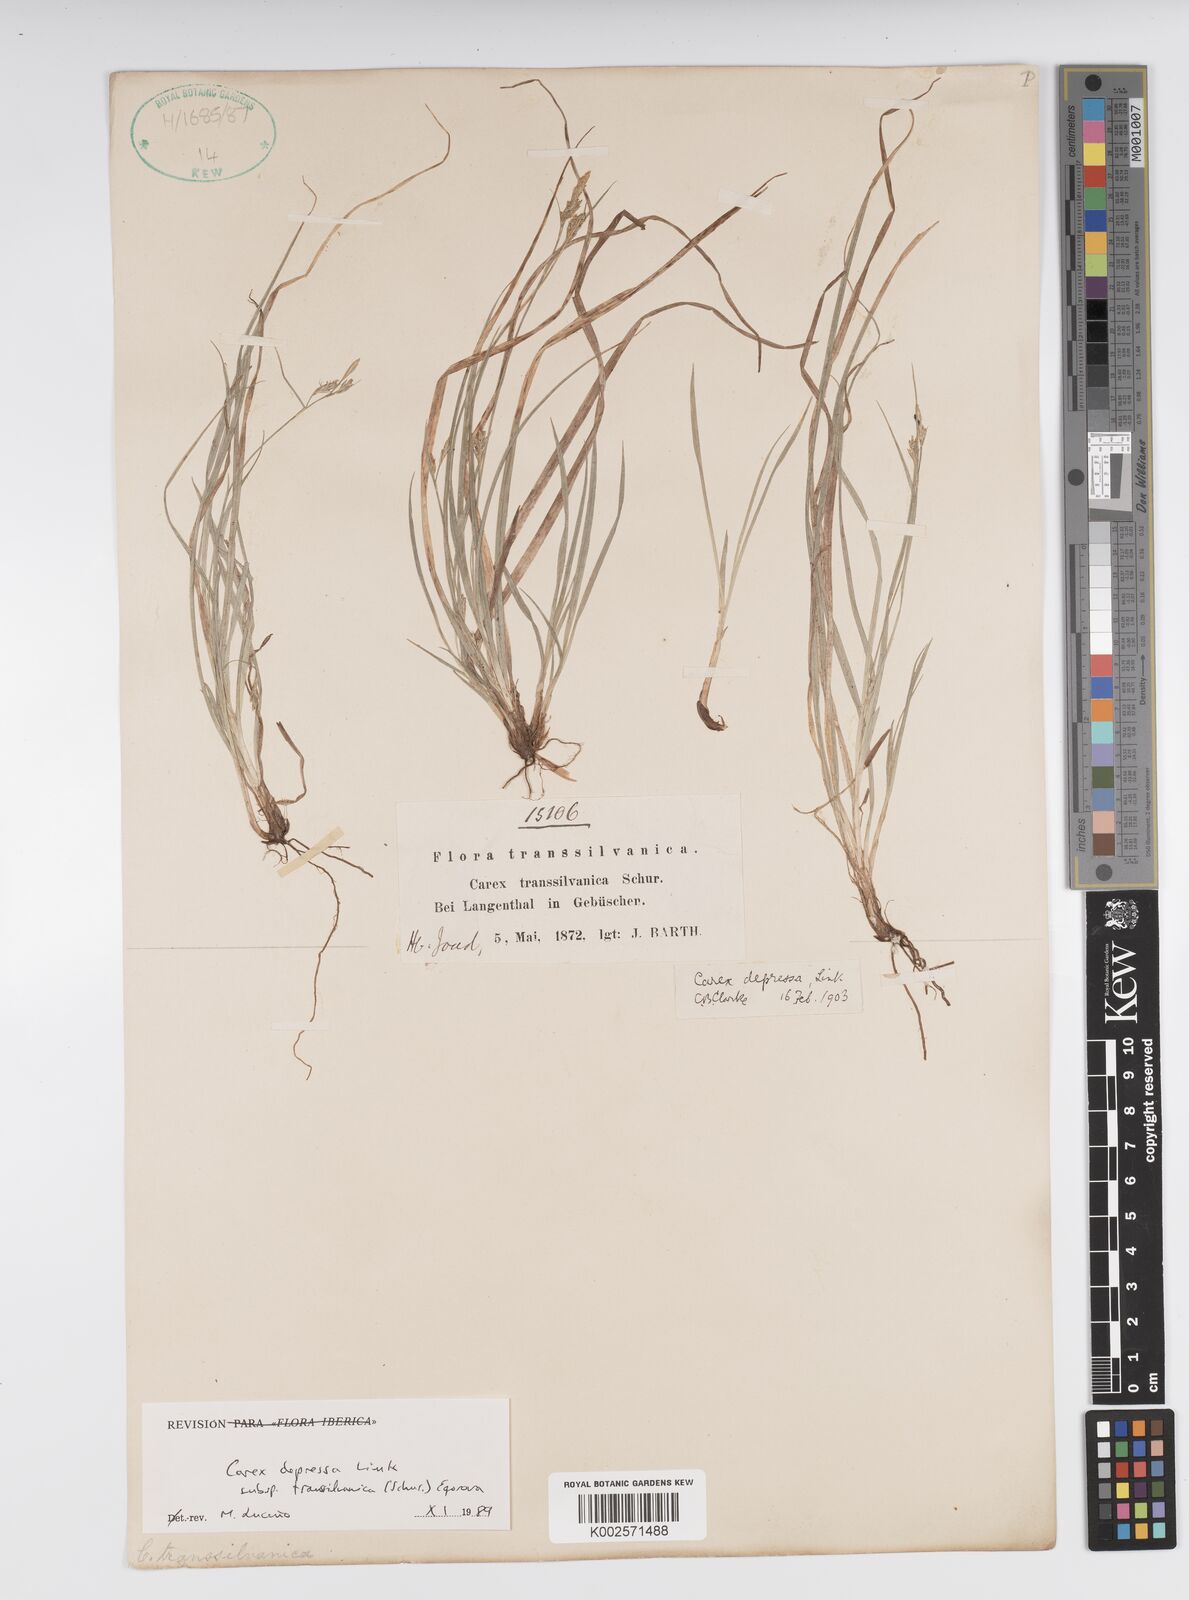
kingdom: Plantae
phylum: Tracheophyta
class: Liliopsida
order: Poales
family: Cyperaceae
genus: Carex
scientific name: Carex depressa
